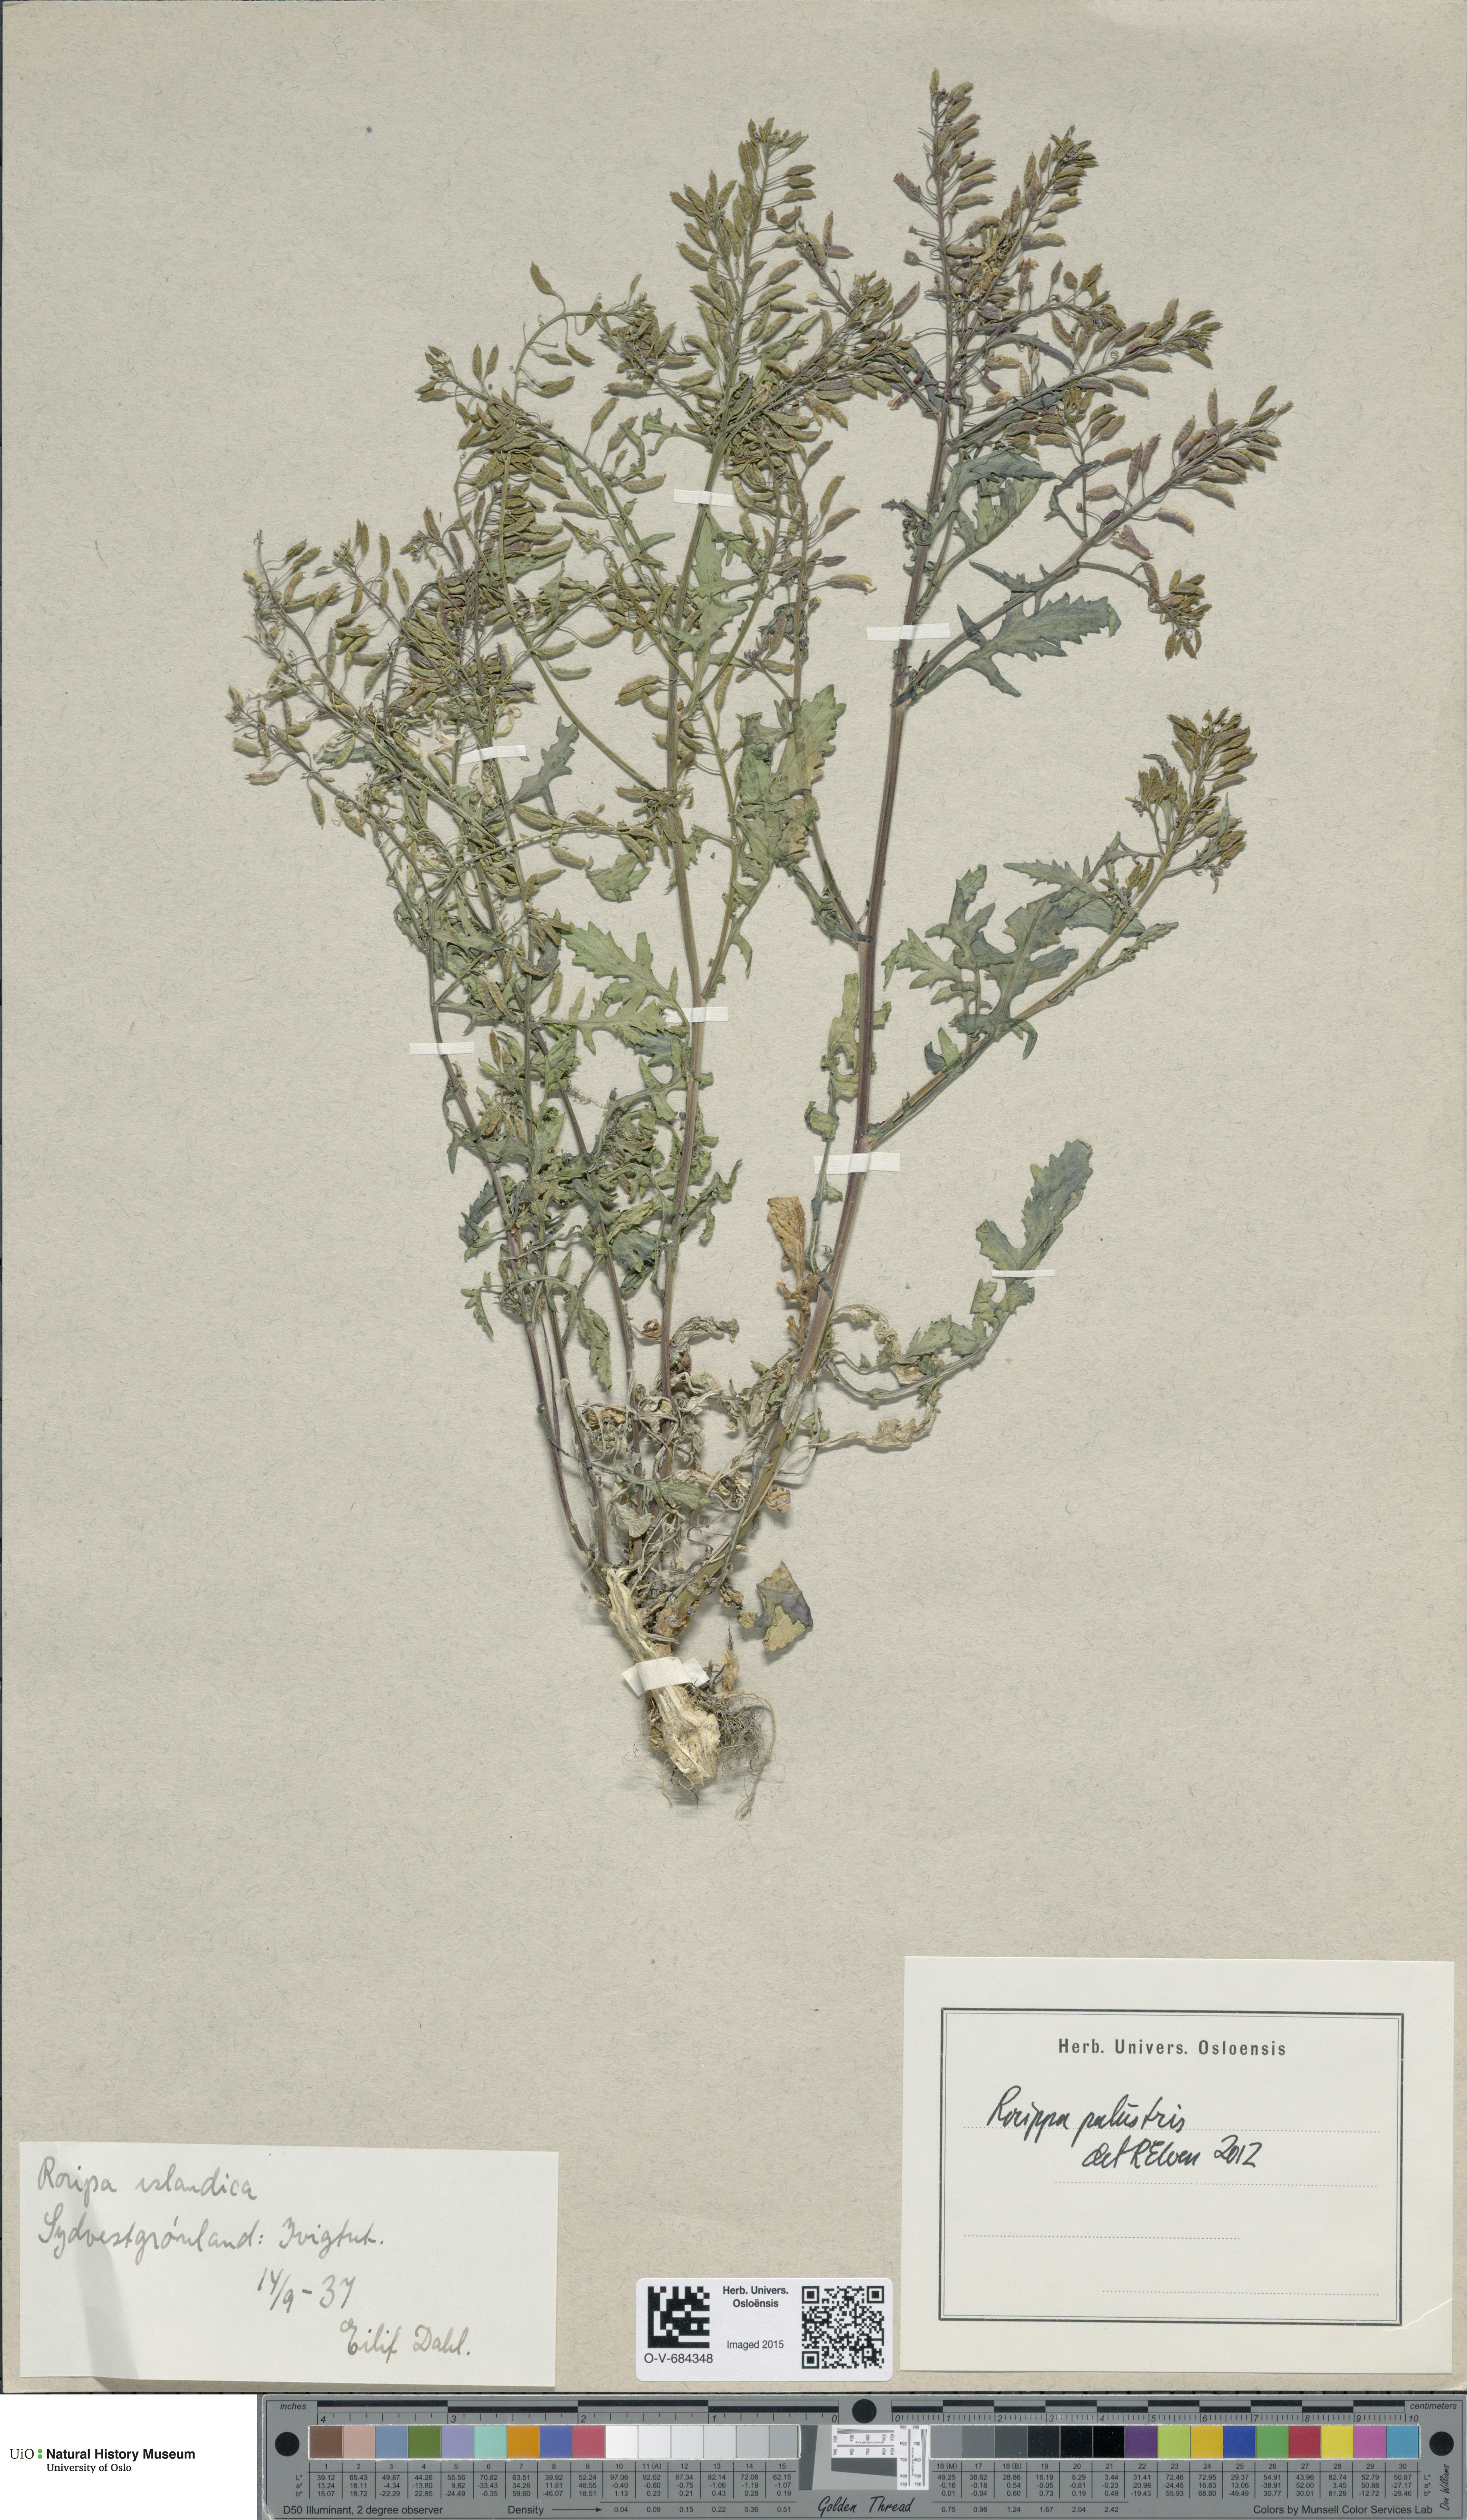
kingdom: Plantae
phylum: Tracheophyta
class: Magnoliopsida
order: Brassicales
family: Brassicaceae
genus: Rorippa
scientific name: Rorippa palustris
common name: Marsh yellow-cress
